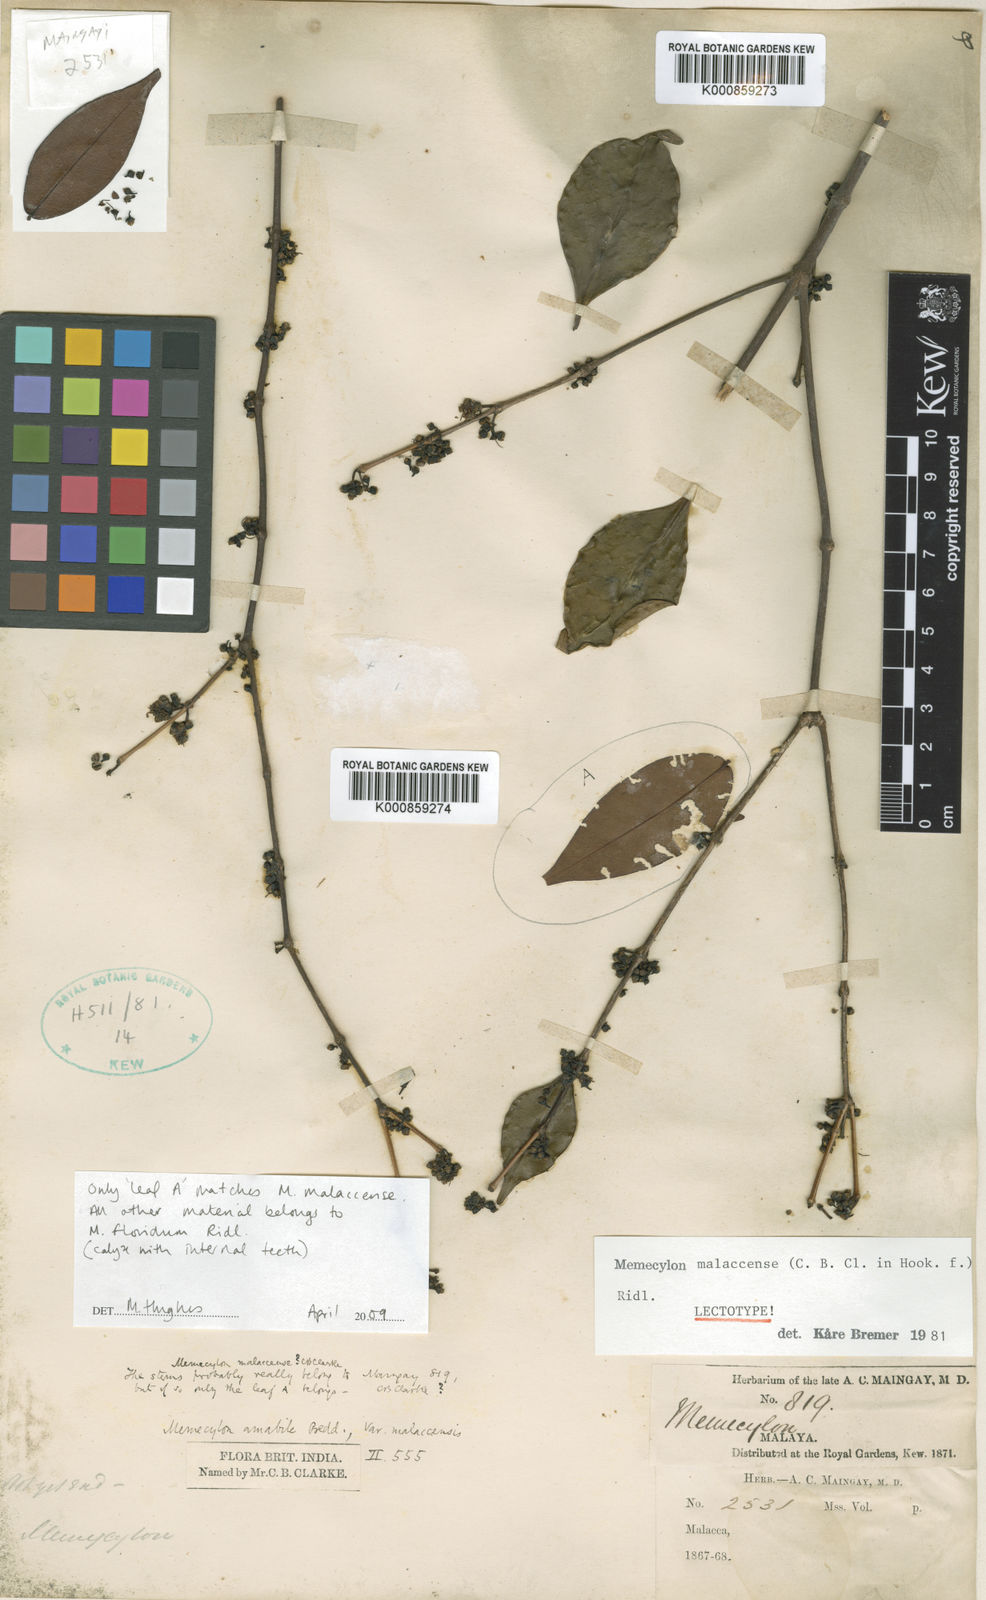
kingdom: Plantae
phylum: Tracheophyta
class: Magnoliopsida
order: Myrtales
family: Melastomataceae
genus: Memecylon
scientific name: Memecylon malaccense
